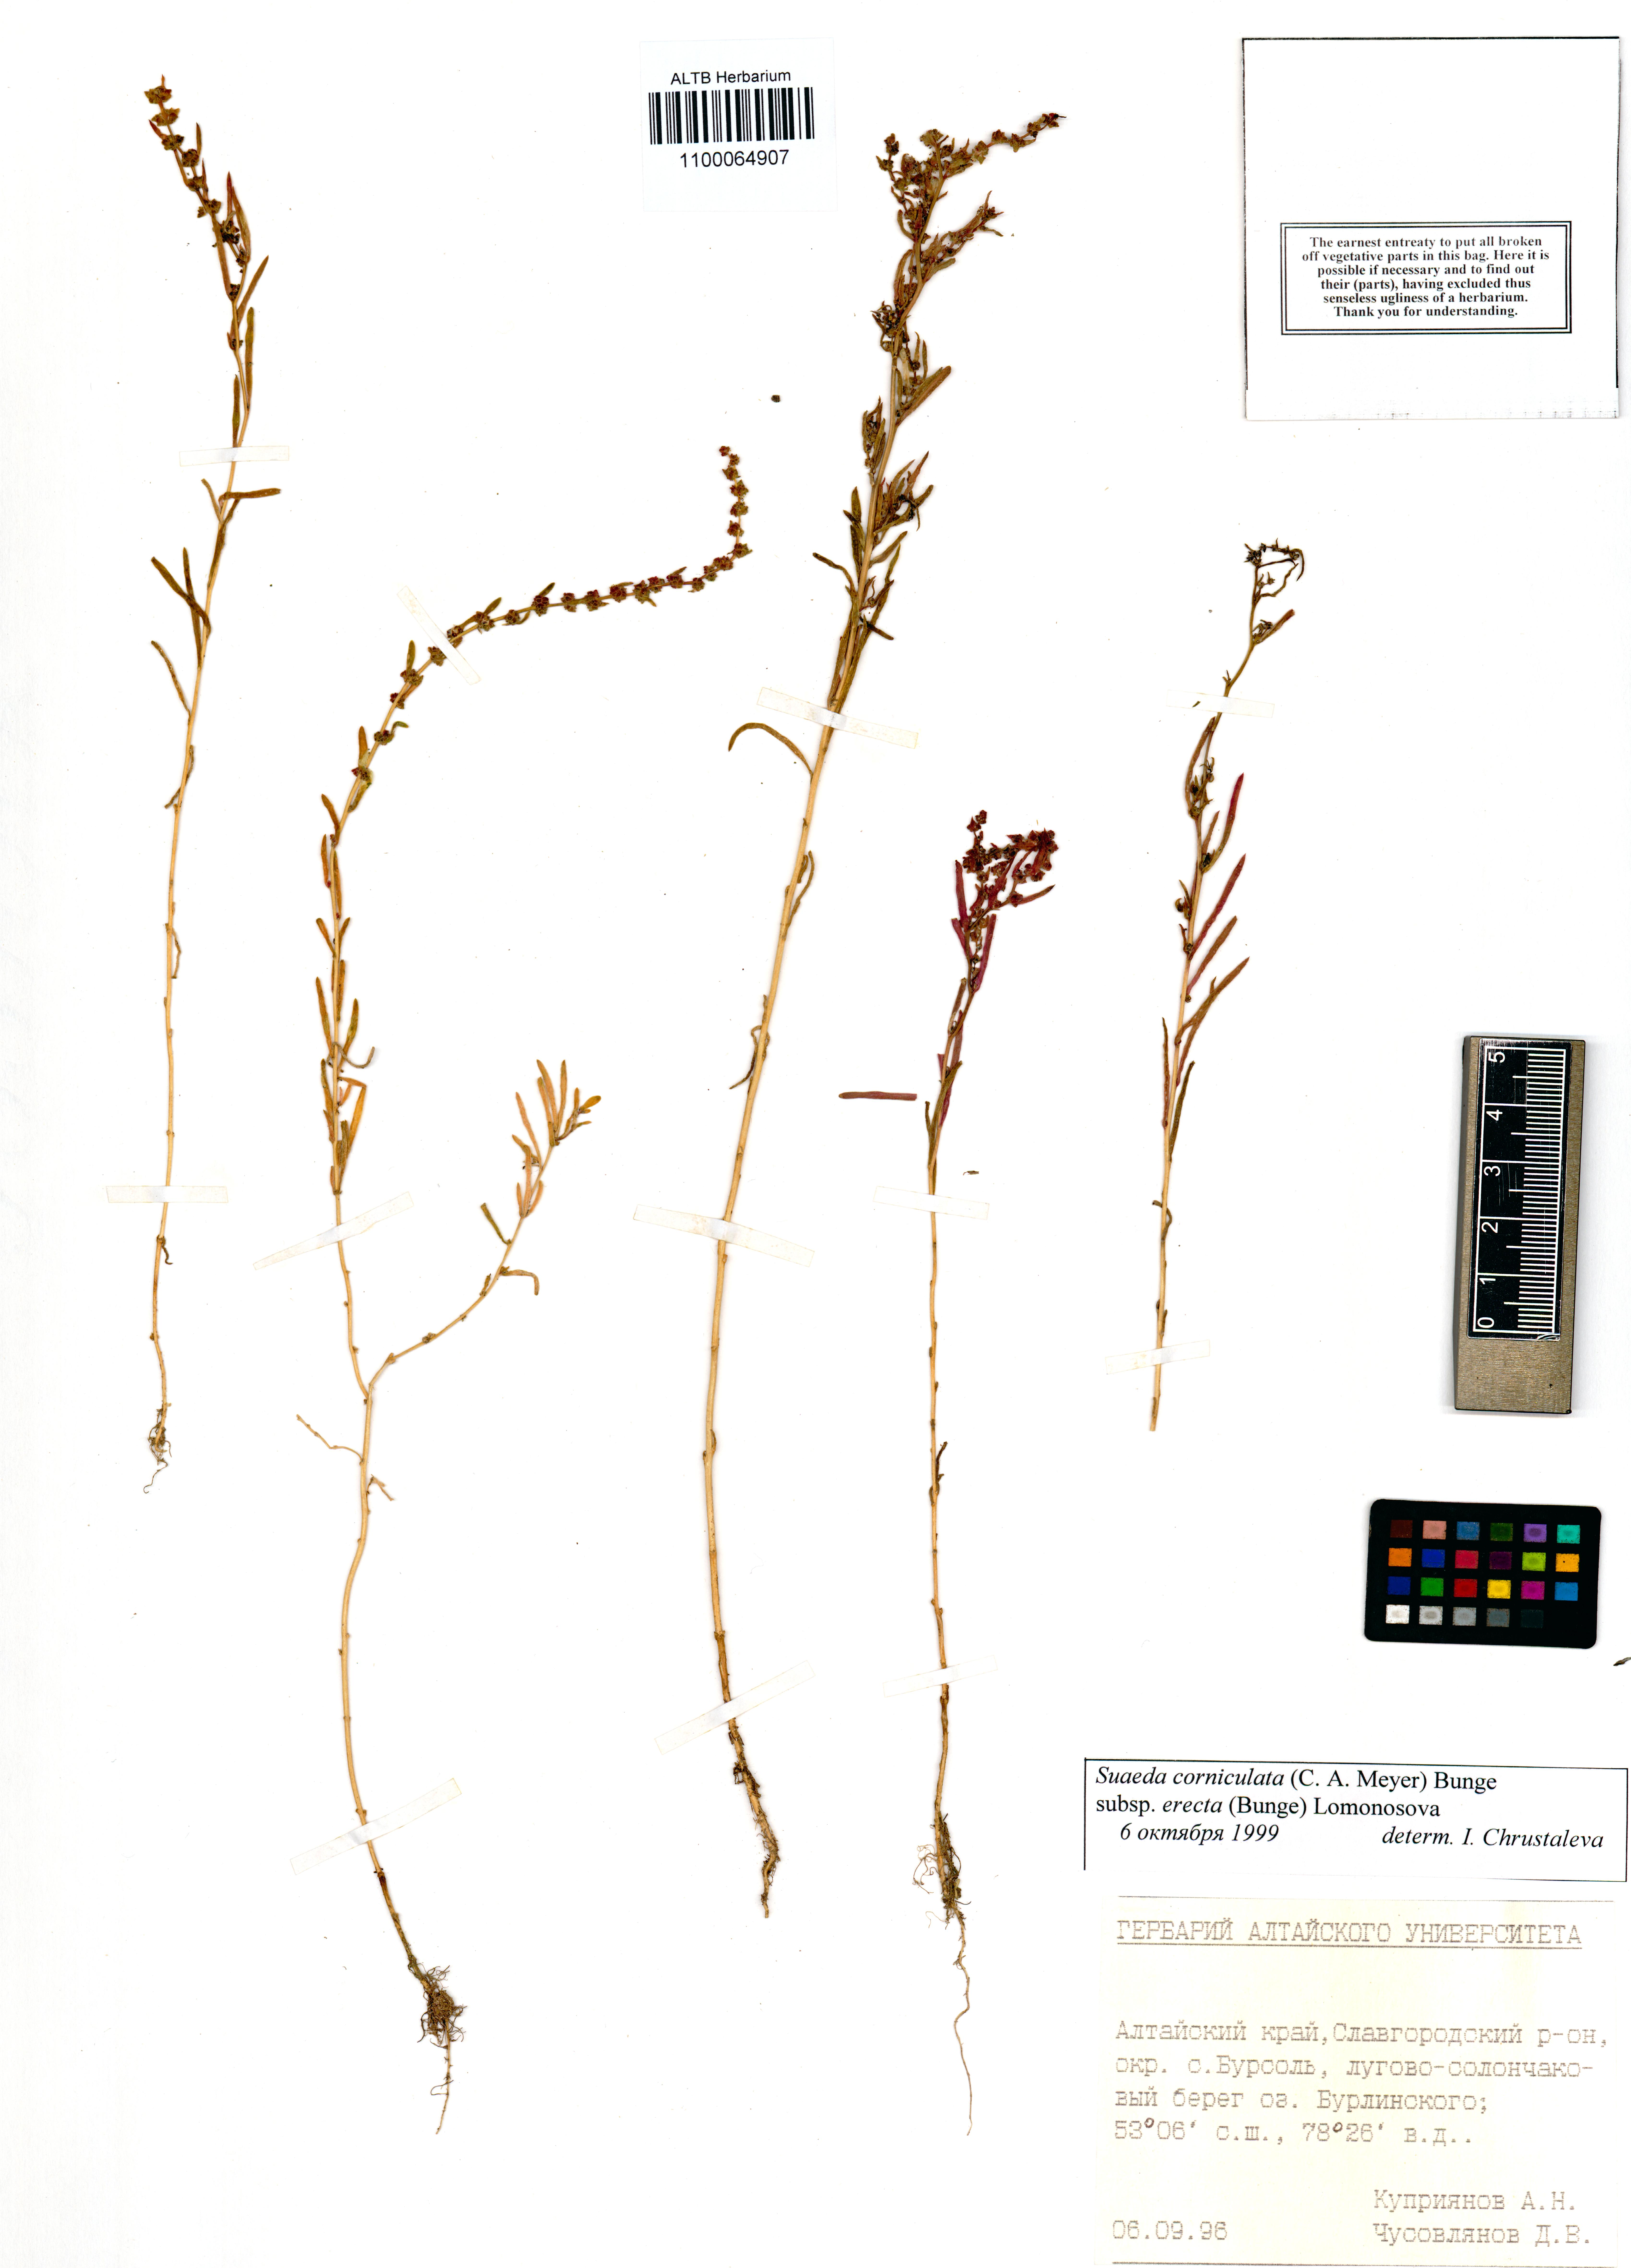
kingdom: Plantae
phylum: Tracheophyta
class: Magnoliopsida
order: Caryophyllales
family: Amaranthaceae
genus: Suaeda
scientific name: Suaeda corniculata
